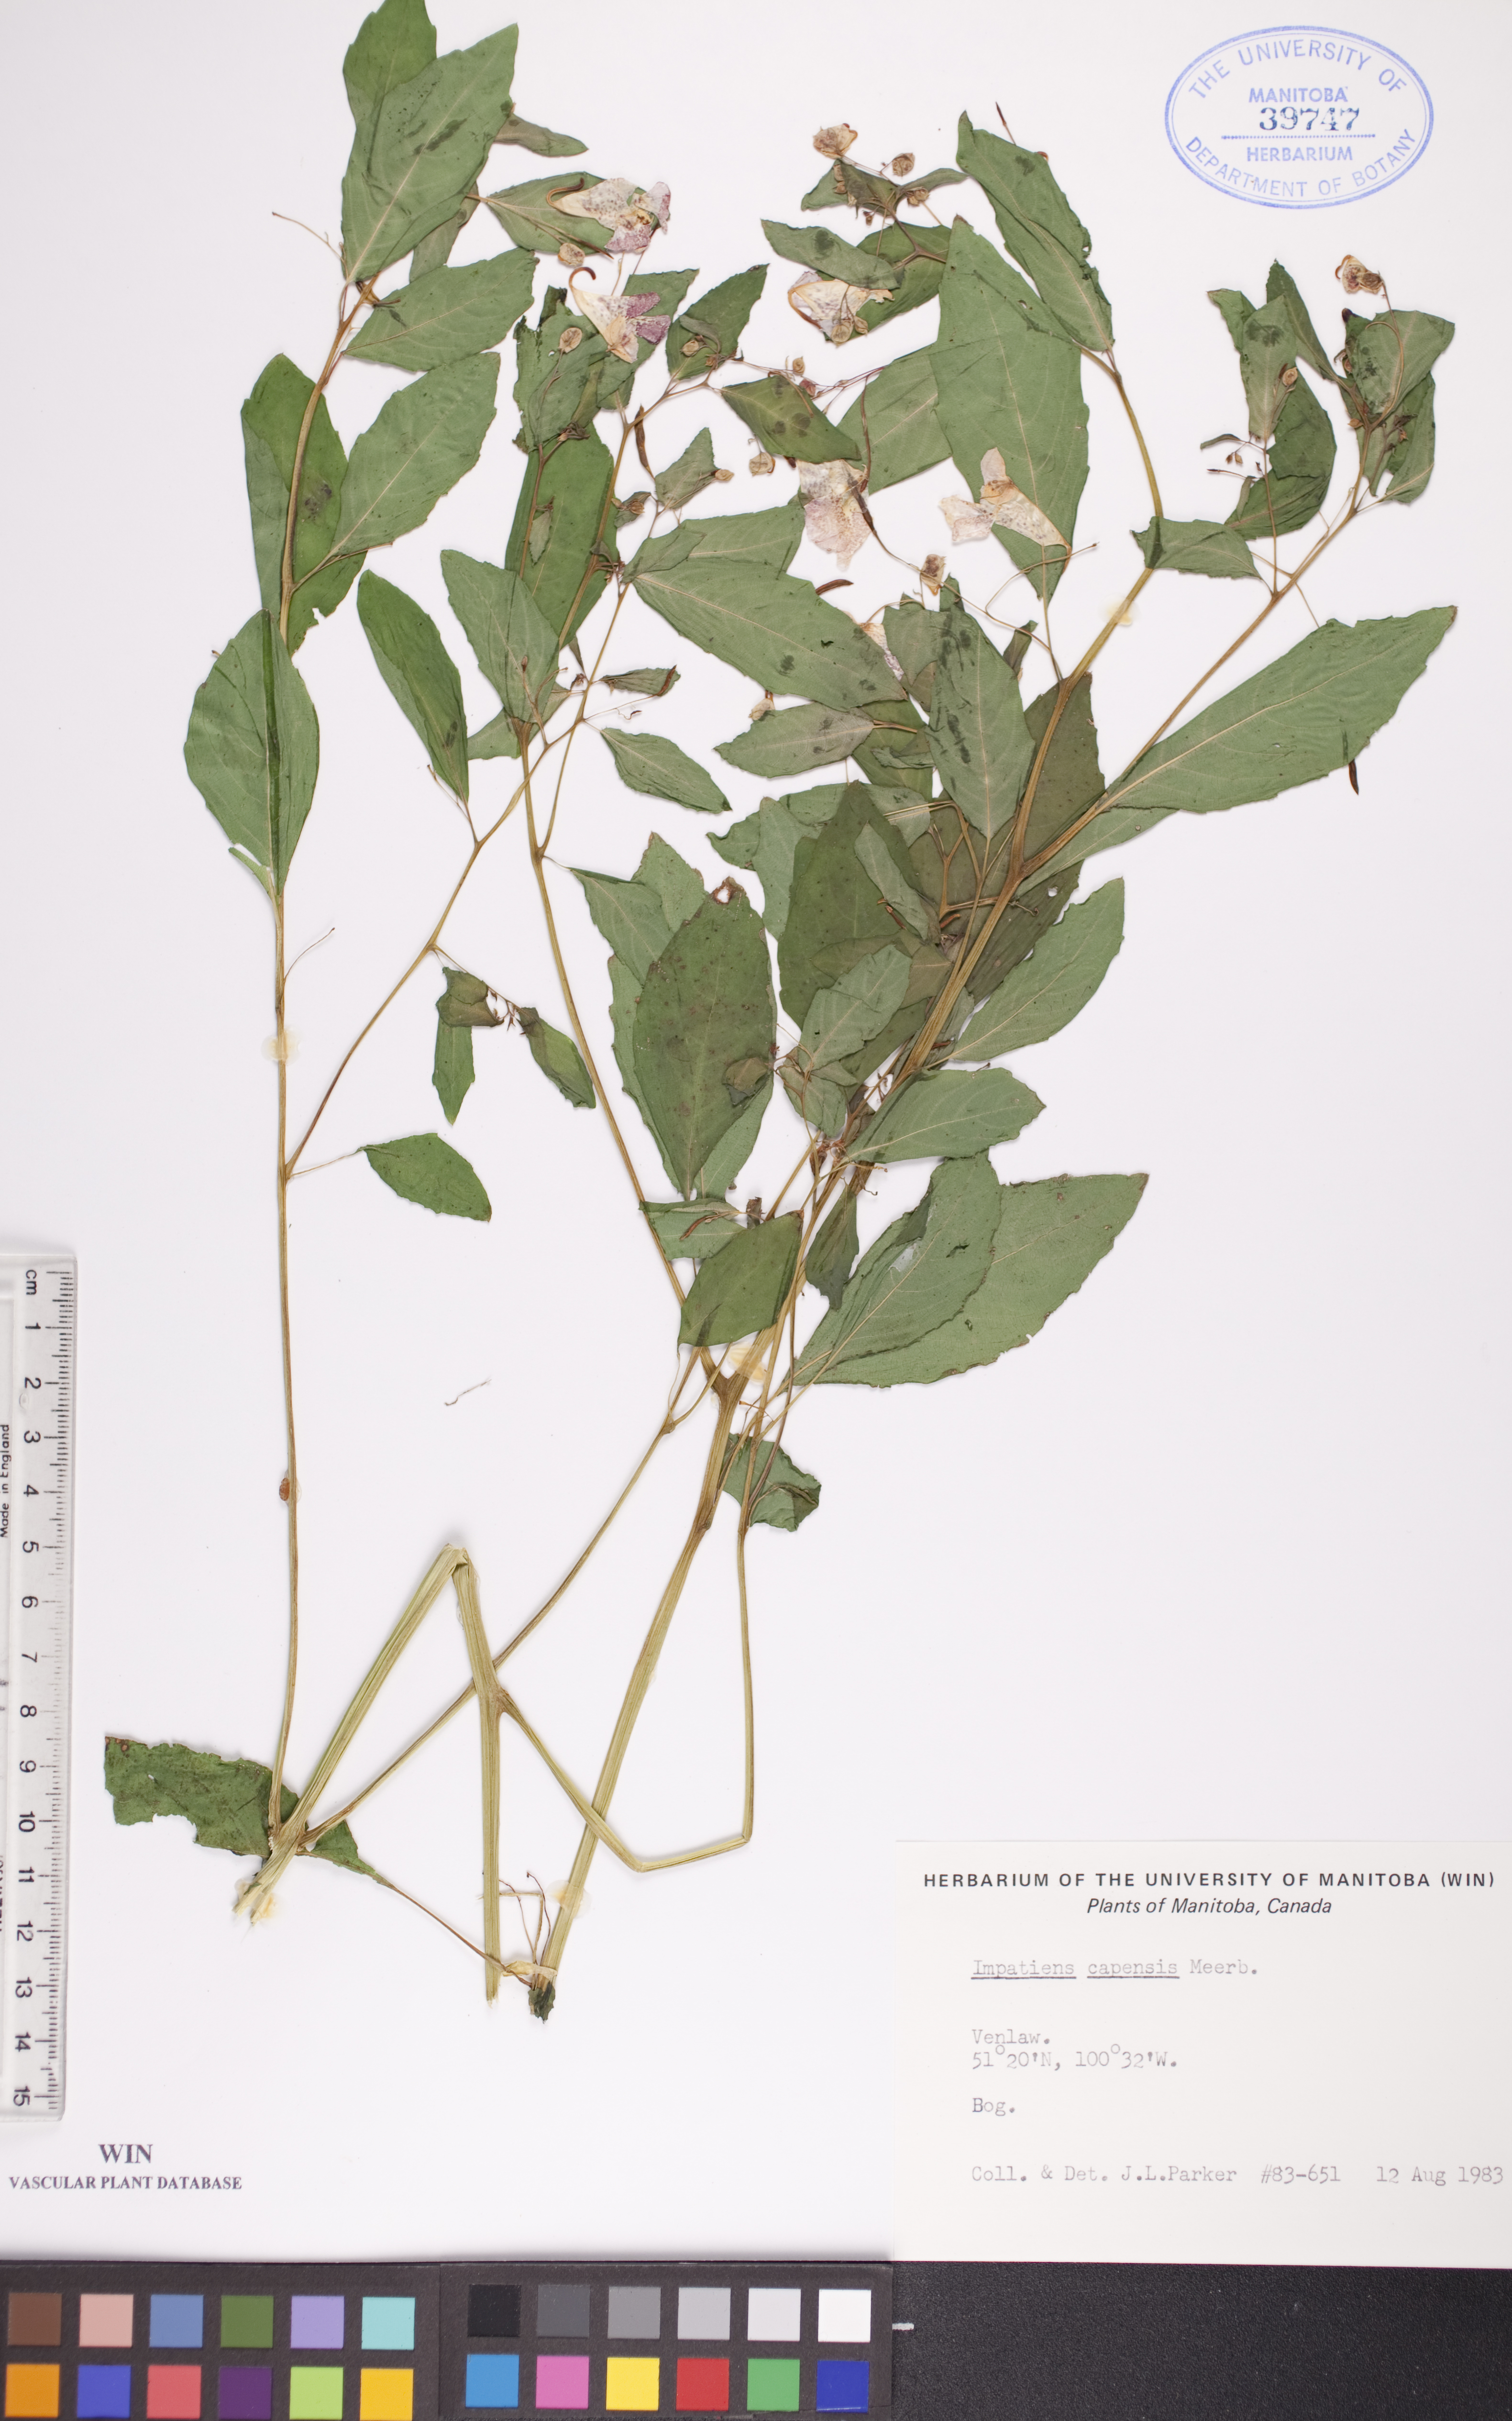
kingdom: Plantae
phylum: Tracheophyta
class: Magnoliopsida
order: Ericales
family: Balsaminaceae
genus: Impatiens
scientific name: Impatiens capensis
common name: Orange balsam
